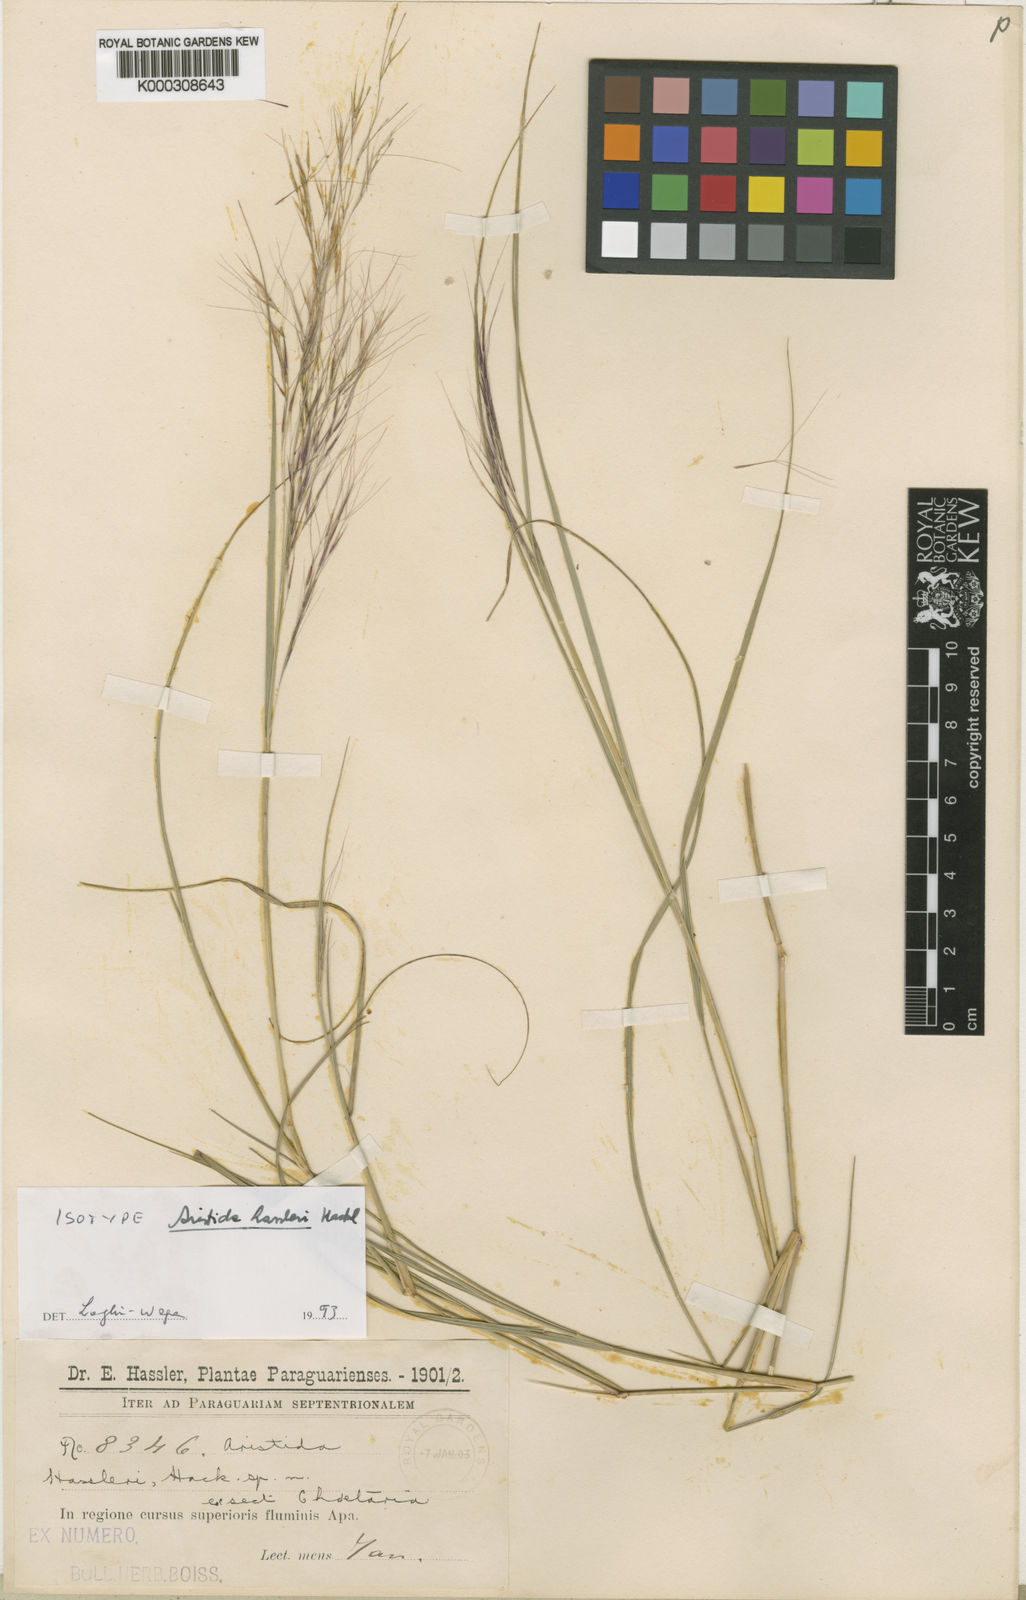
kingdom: Plantae
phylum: Tracheophyta
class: Liliopsida
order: Poales
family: Poaceae
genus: Aristida
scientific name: Aristida hassleri
